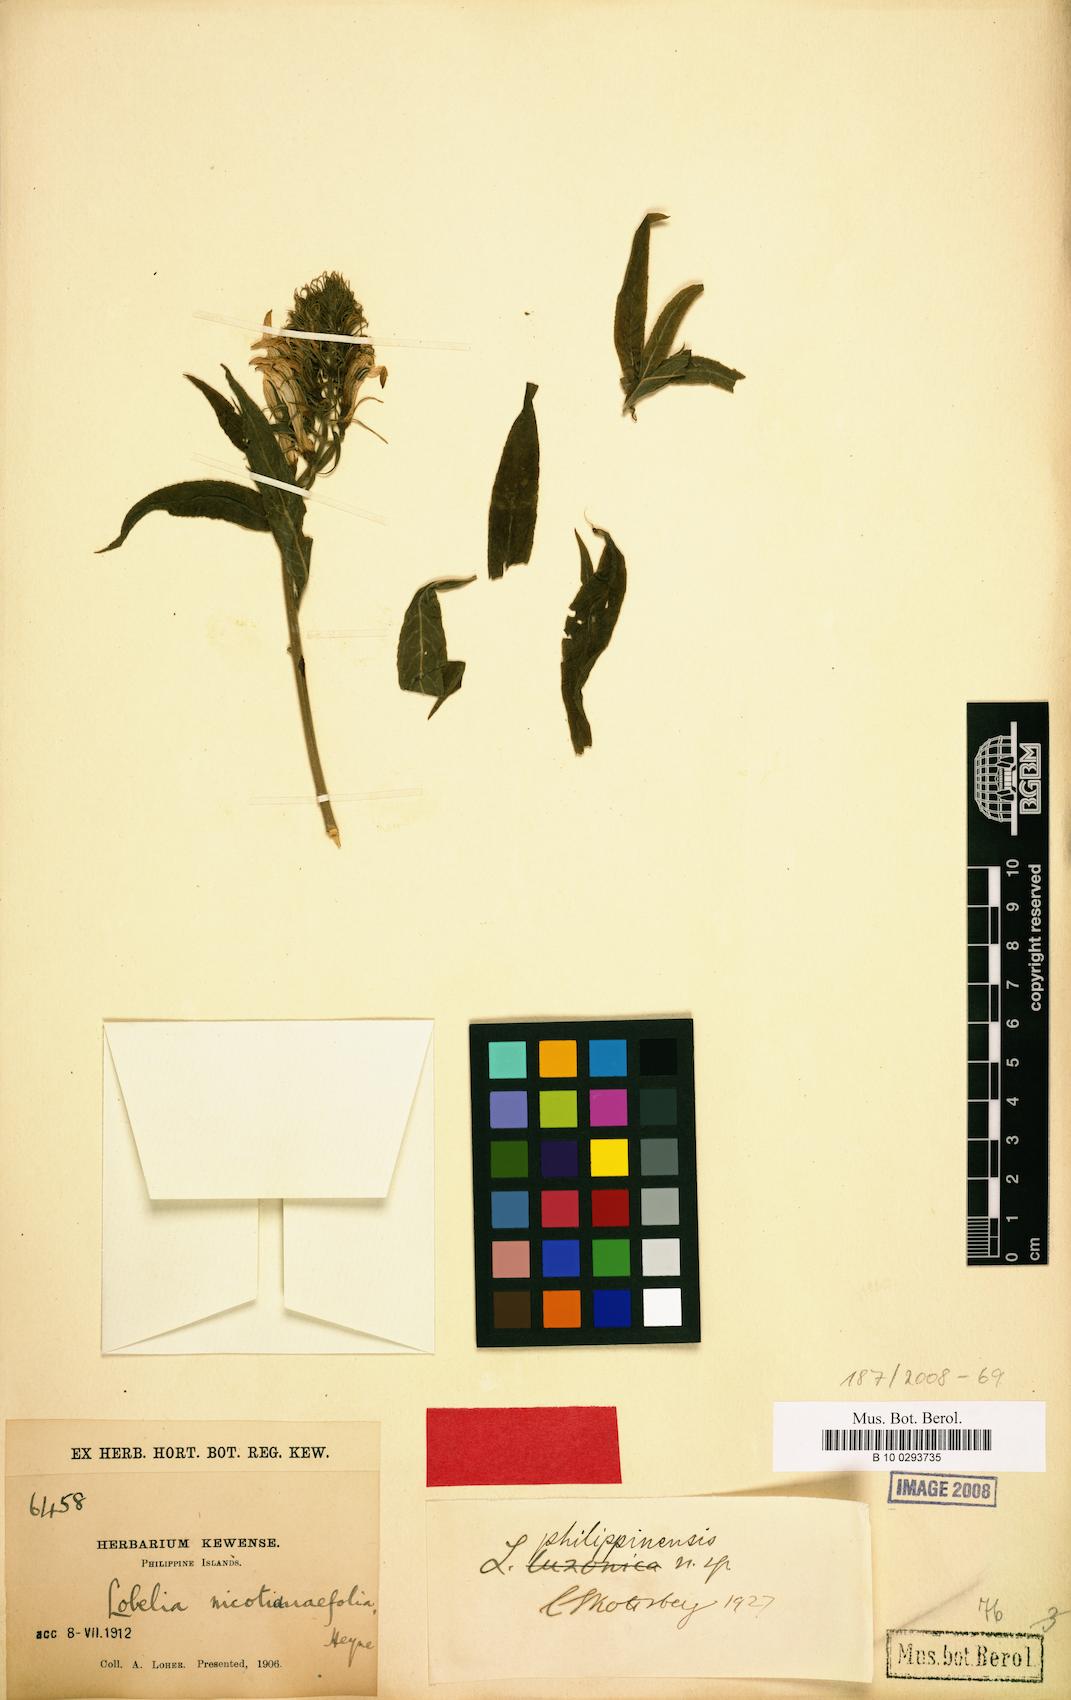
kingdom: Plantae
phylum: Tracheophyta
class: Magnoliopsida
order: Asterales
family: Campanulaceae
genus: Lobelia
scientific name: Lobelia philippinensis
